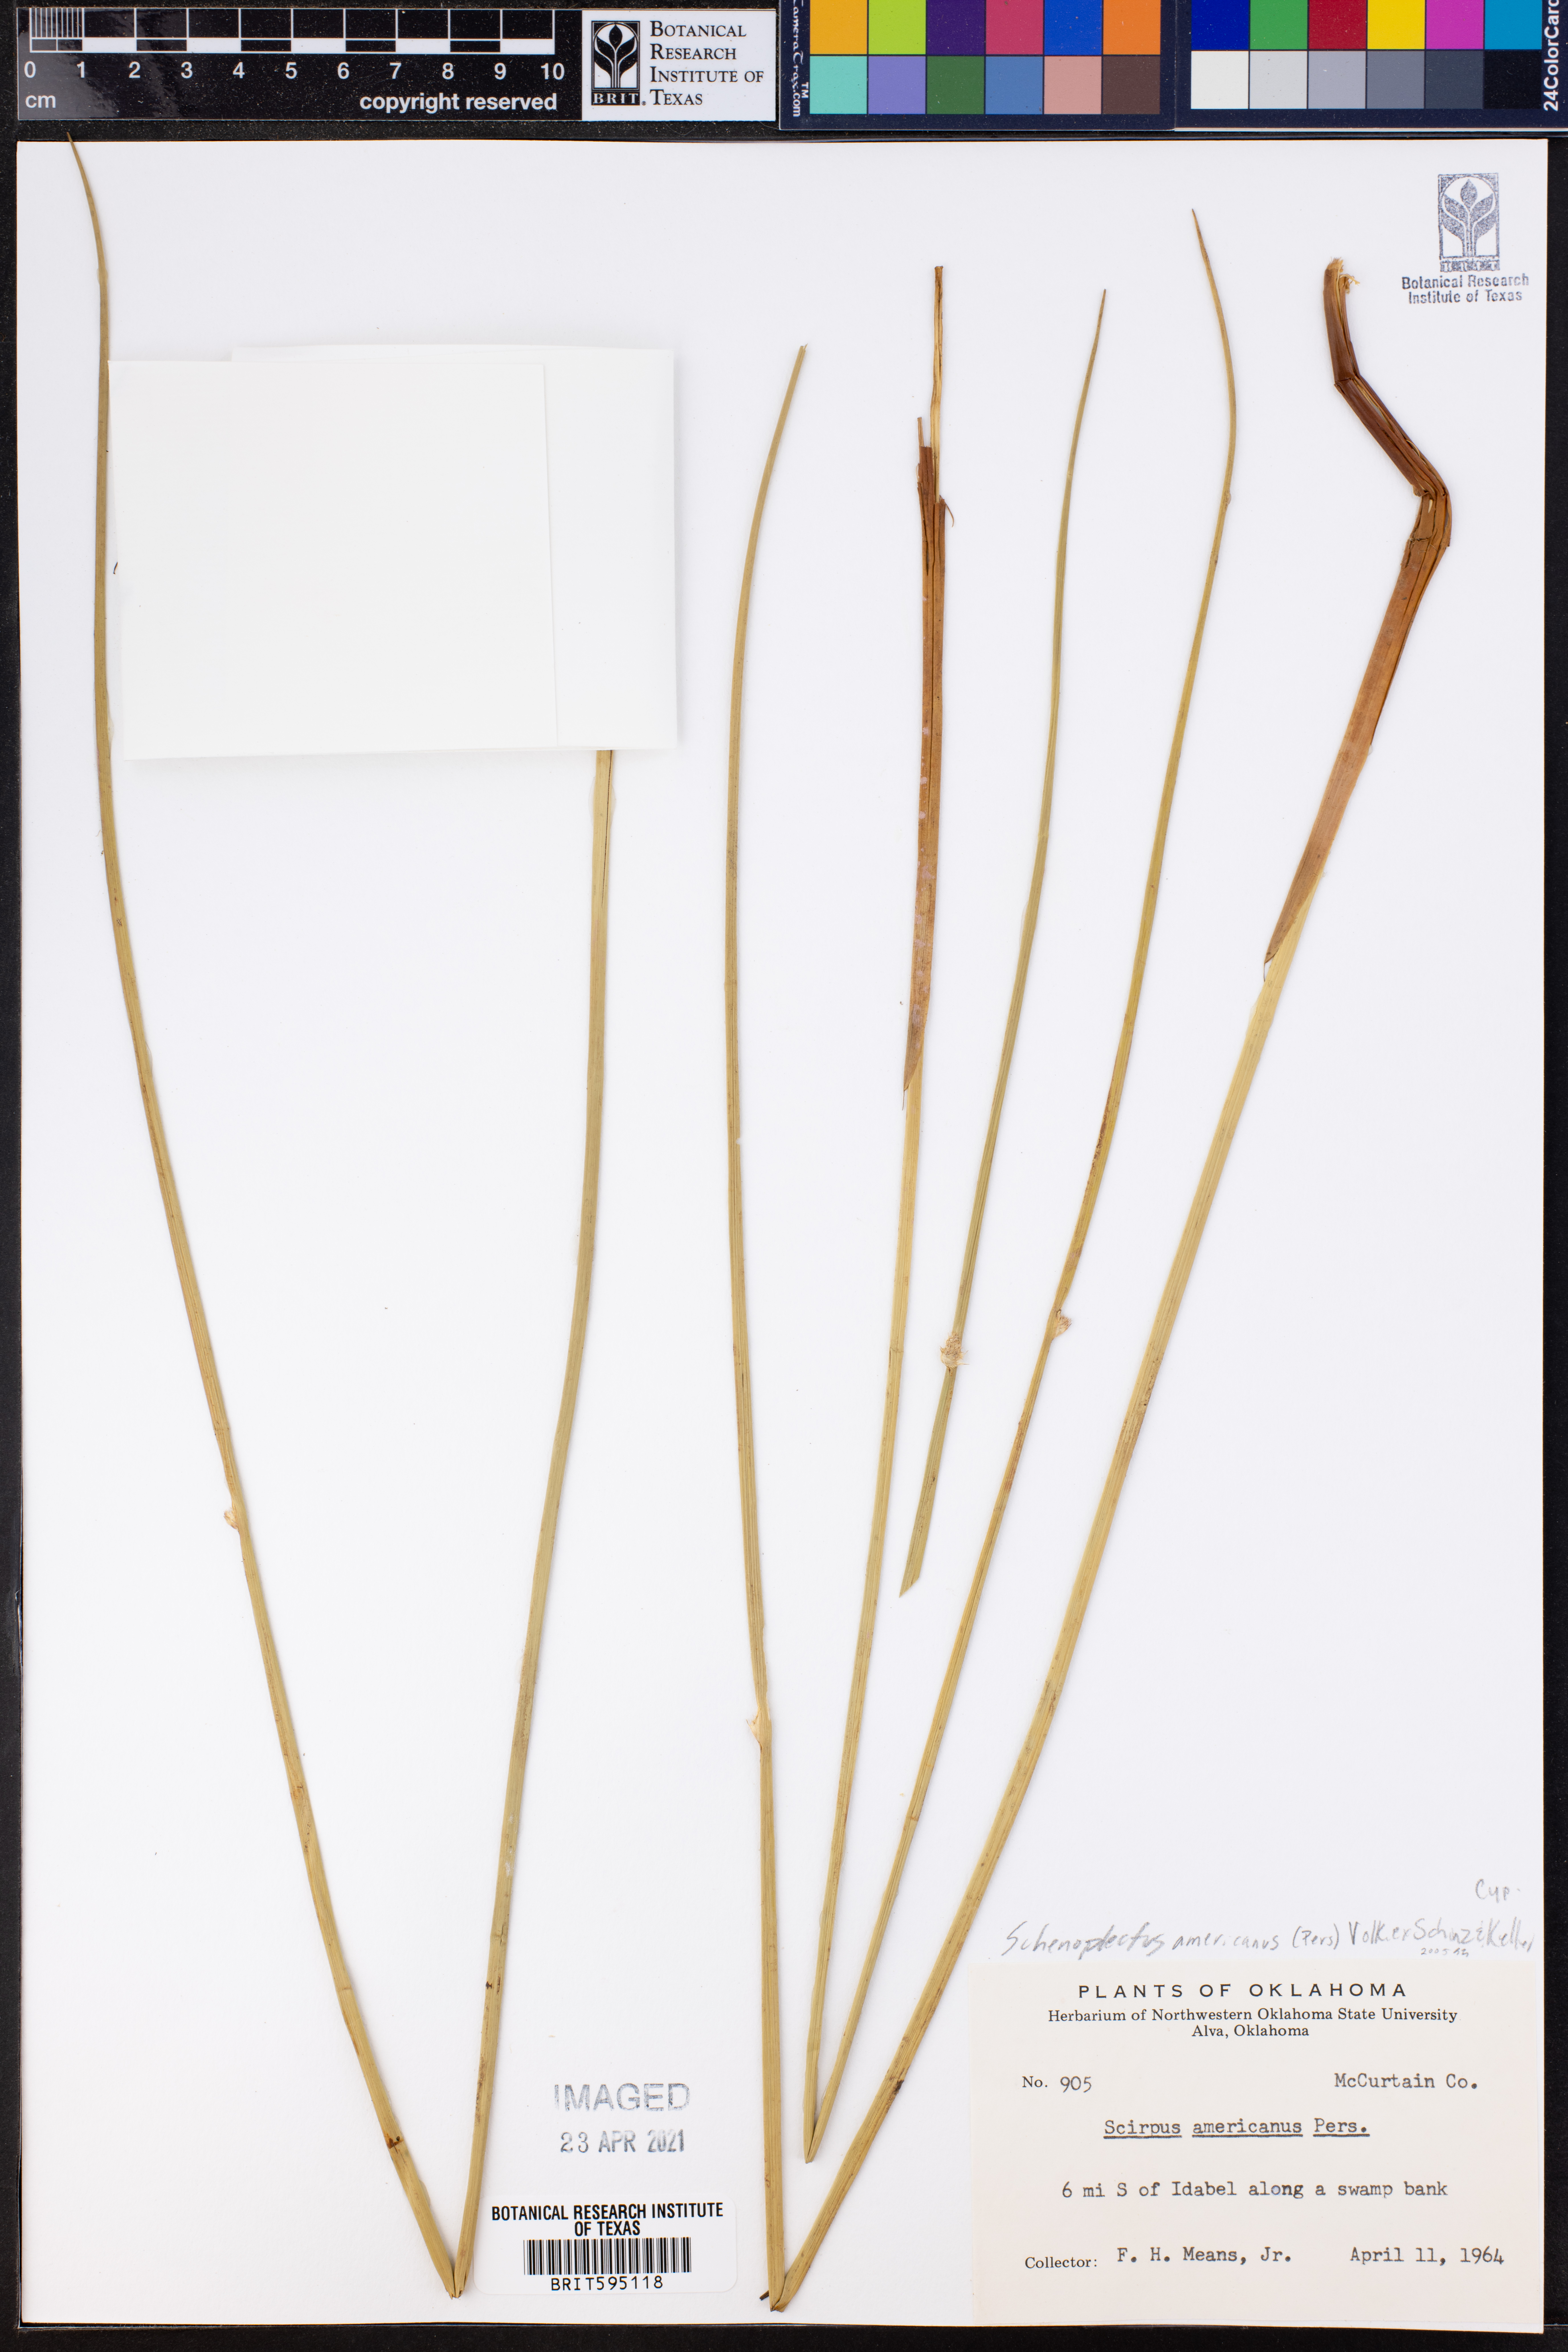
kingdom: Plantae
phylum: Tracheophyta
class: Liliopsida
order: Poales
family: Cyperaceae
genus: Schoenoplectus
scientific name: Schoenoplectus americanus
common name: American three-square bulrush
